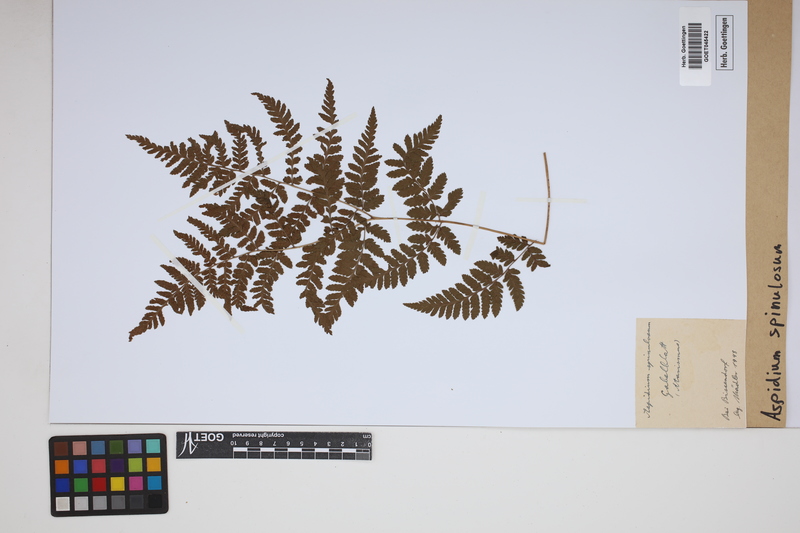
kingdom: Plantae
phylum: Tracheophyta
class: Polypodiopsida
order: Polypodiales
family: Dryopteridaceae
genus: Dryopteris
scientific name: Dryopteris
